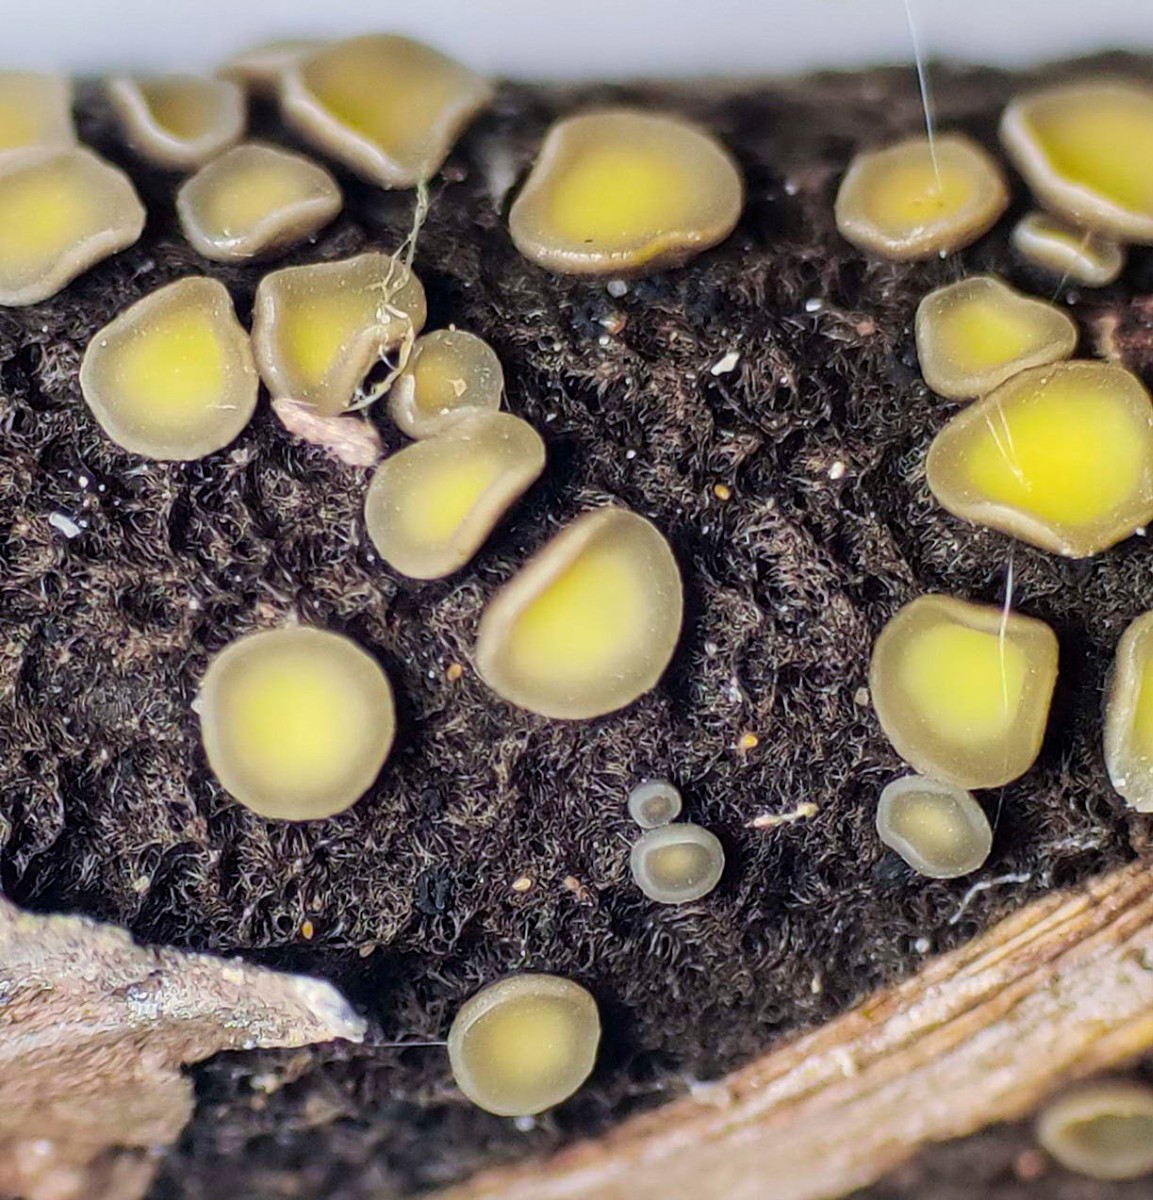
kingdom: Fungi
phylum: Ascomycota
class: Leotiomycetes
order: Helotiales
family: Mollisiaceae
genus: Trichobelonium
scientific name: Trichobelonium kneiffii
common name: tagrør-gråskive
